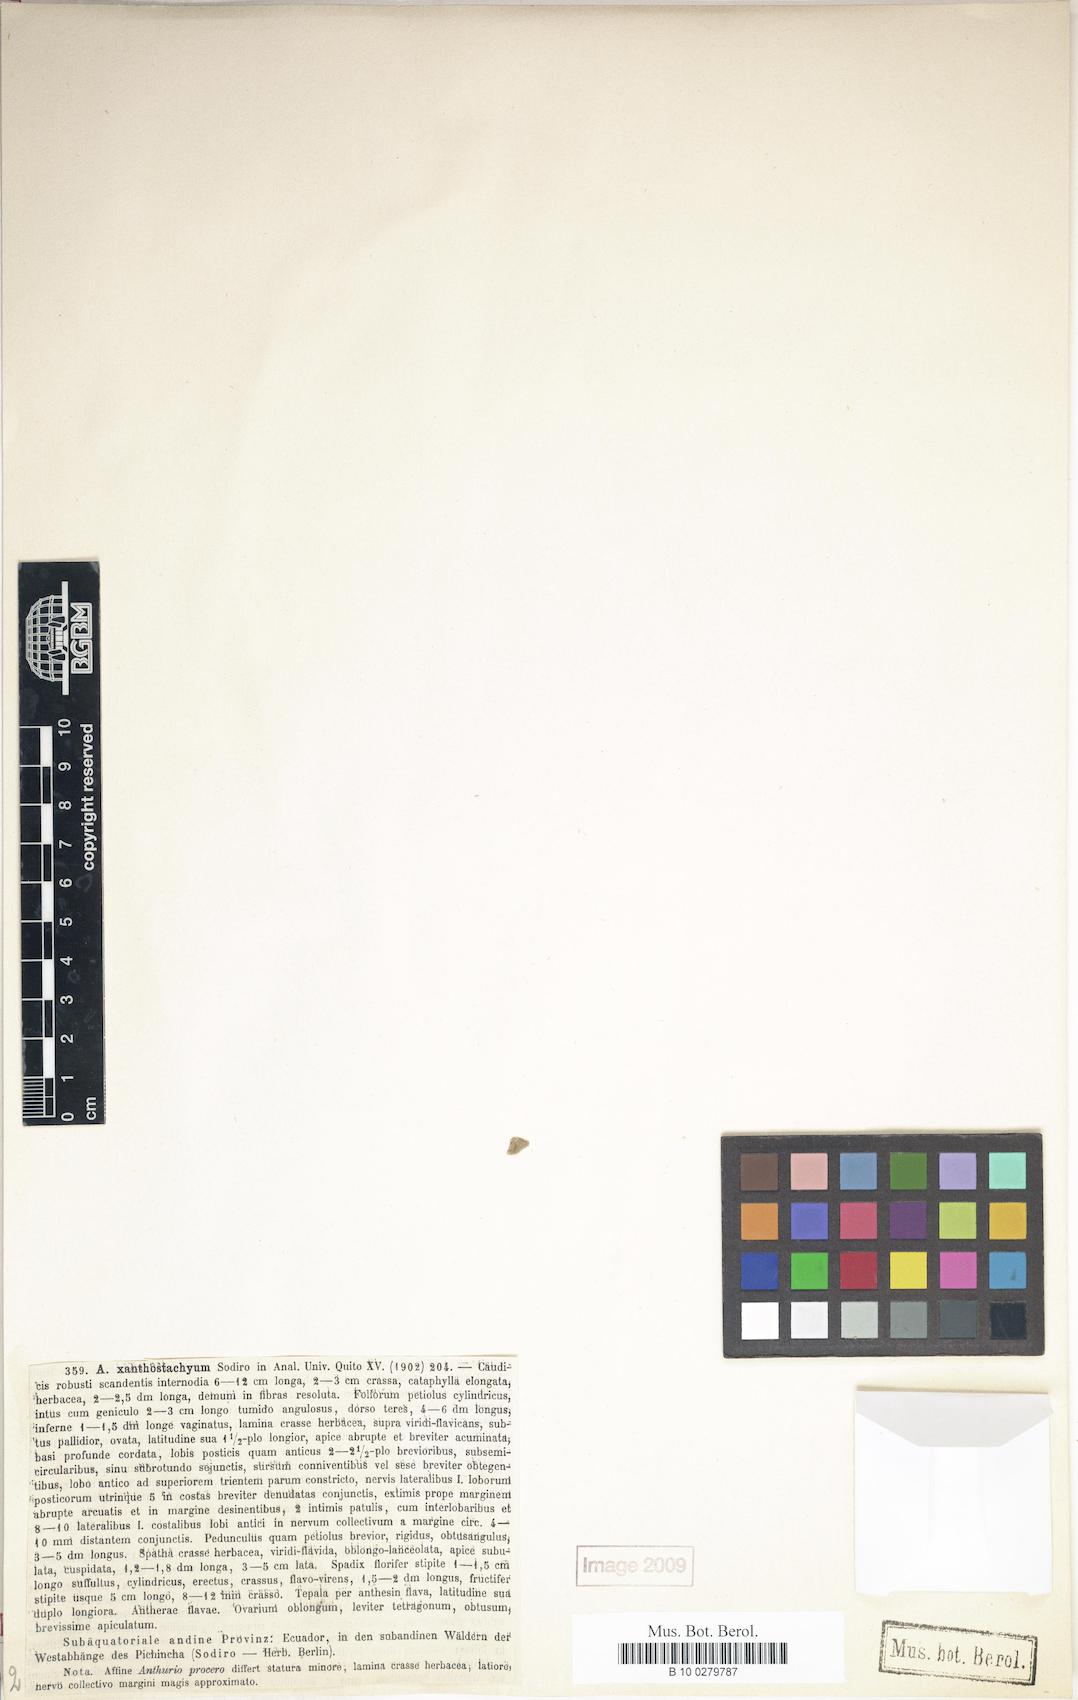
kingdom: Plantae
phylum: Tracheophyta
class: Liliopsida
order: Alismatales
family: Araceae
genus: Anthurium
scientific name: Anthurium incurvatum
